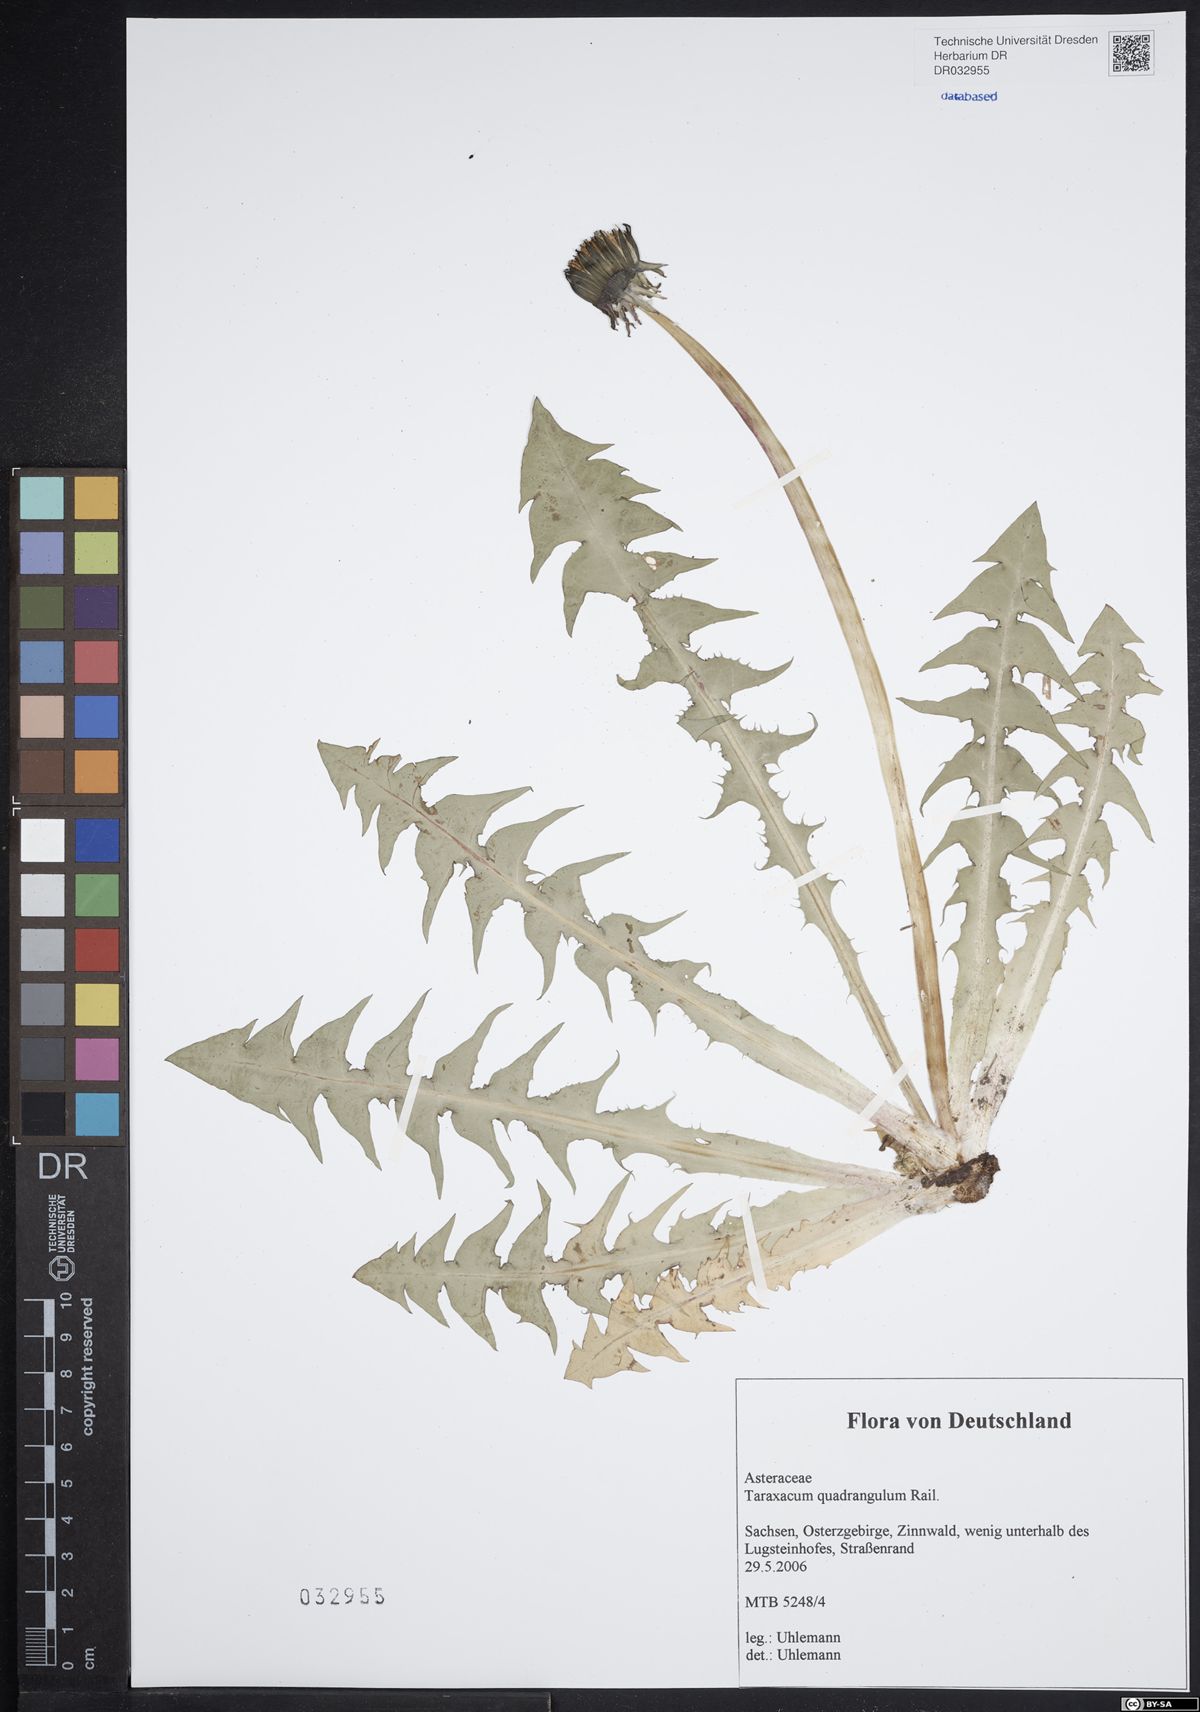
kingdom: Plantae
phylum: Tracheophyta
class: Magnoliopsida
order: Asterales
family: Asteraceae
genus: Taraxacum
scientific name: Taraxacum quadrangulum
